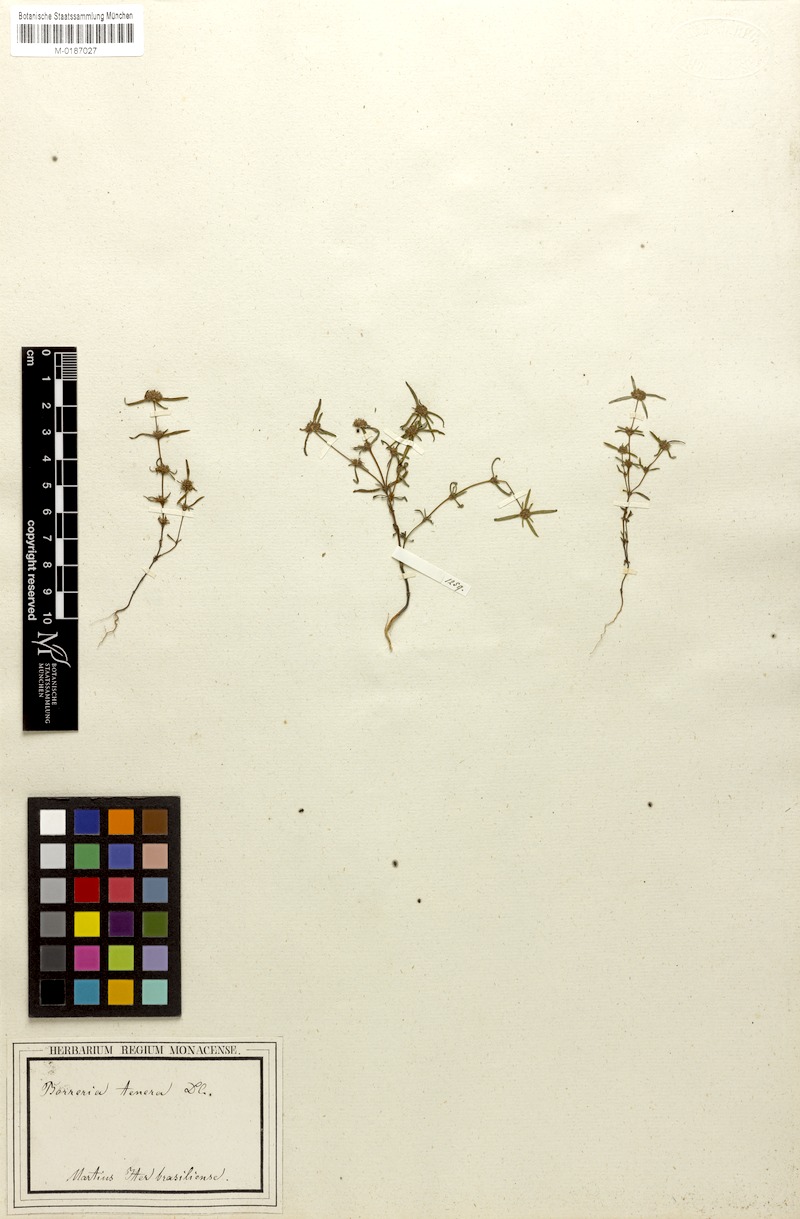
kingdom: Plantae
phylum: Tracheophyta
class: Magnoliopsida
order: Gentianales
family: Rubiaceae
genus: Spermacoce
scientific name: Spermacoce pohliana
